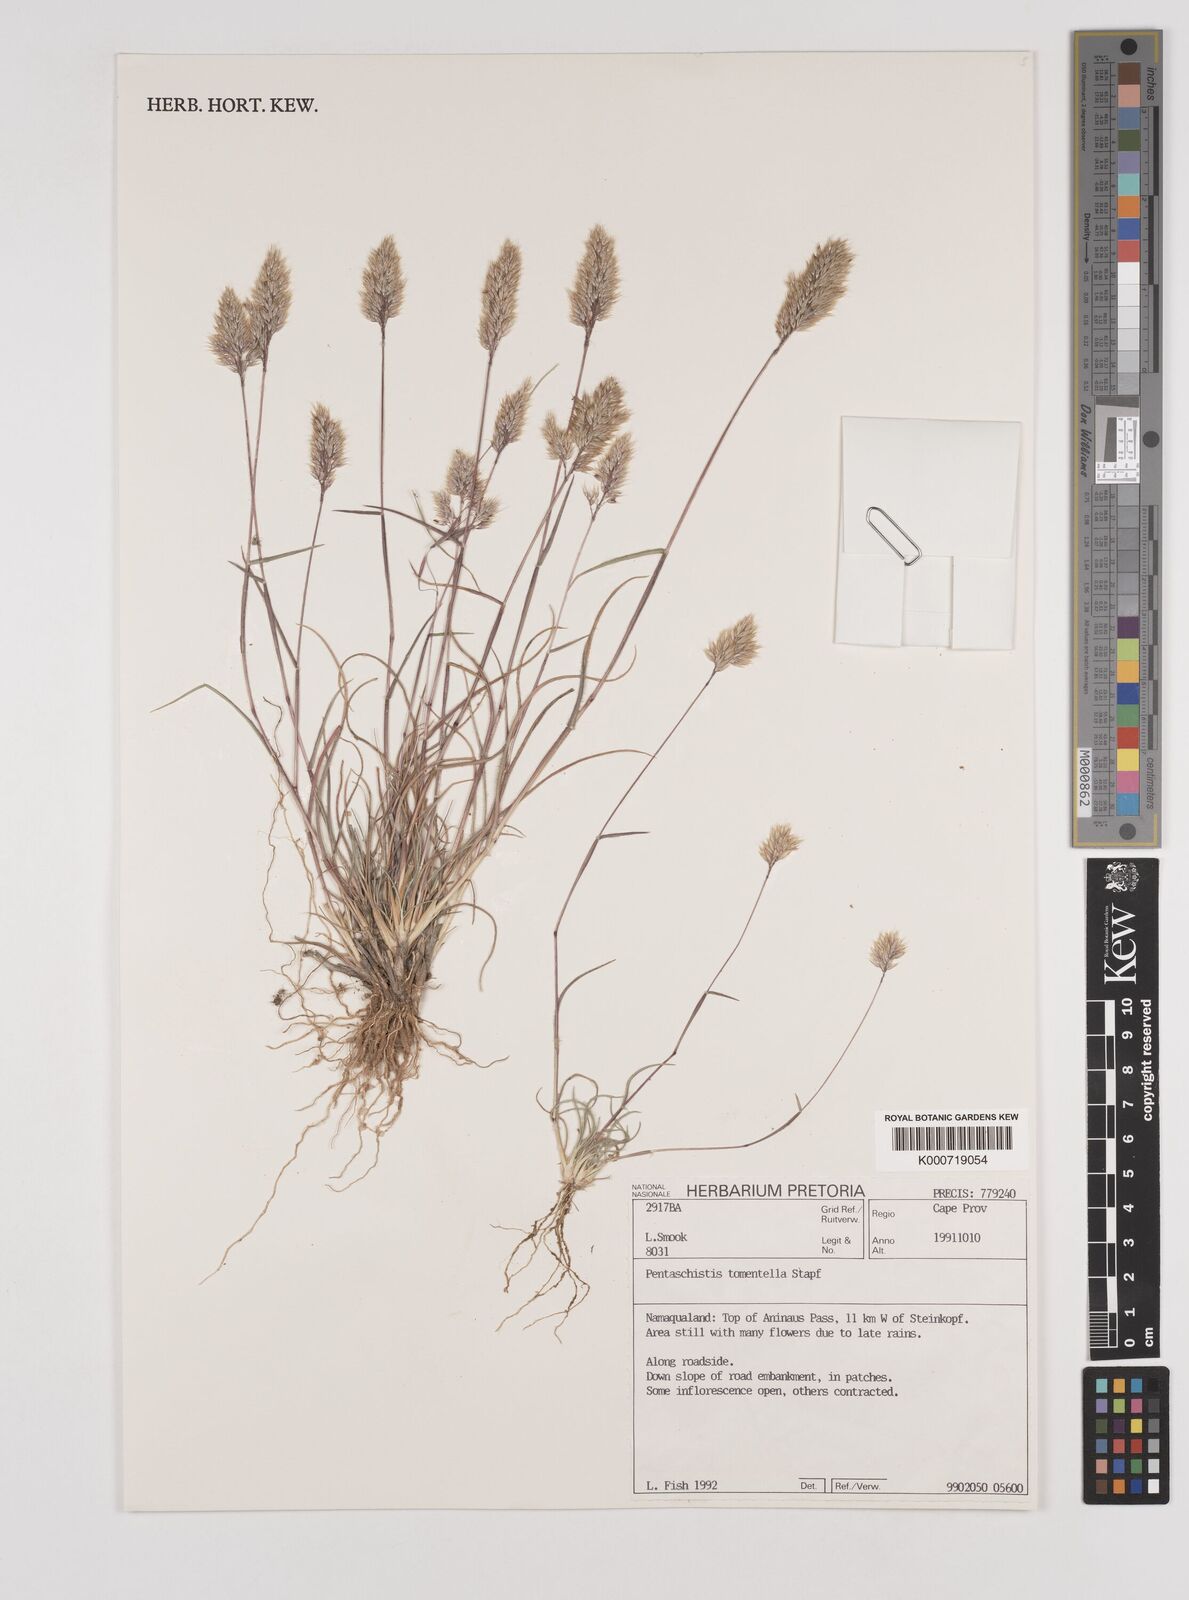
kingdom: Plantae
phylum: Tracheophyta
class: Liliopsida
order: Poales
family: Poaceae
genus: Pentameris
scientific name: Pentameris tomentella
